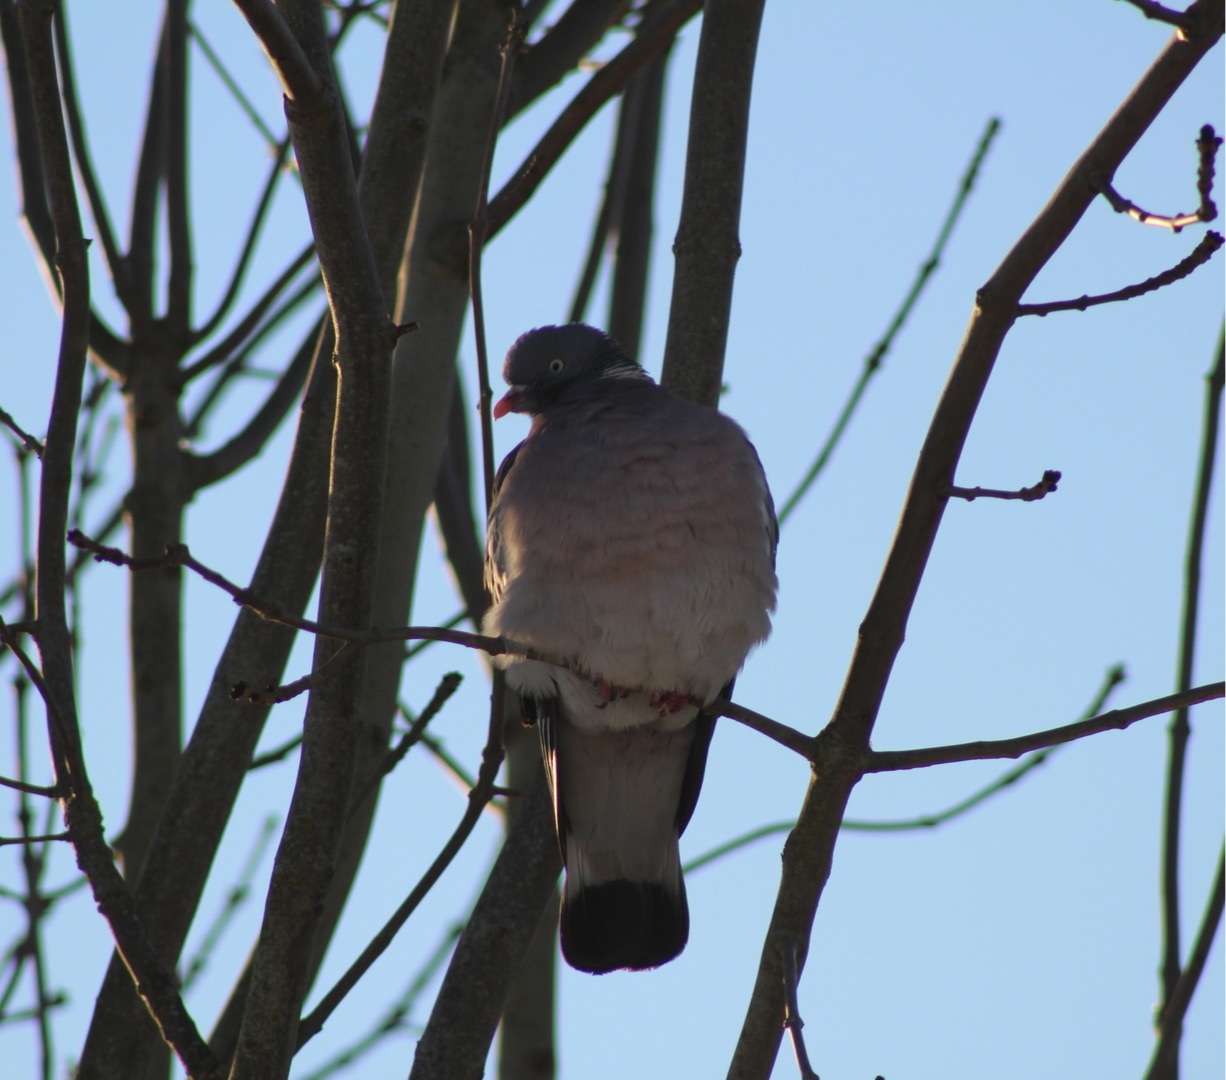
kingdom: Animalia
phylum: Chordata
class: Aves
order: Columbiformes
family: Columbidae
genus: Columba
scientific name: Columba palumbus
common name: Ringdue
